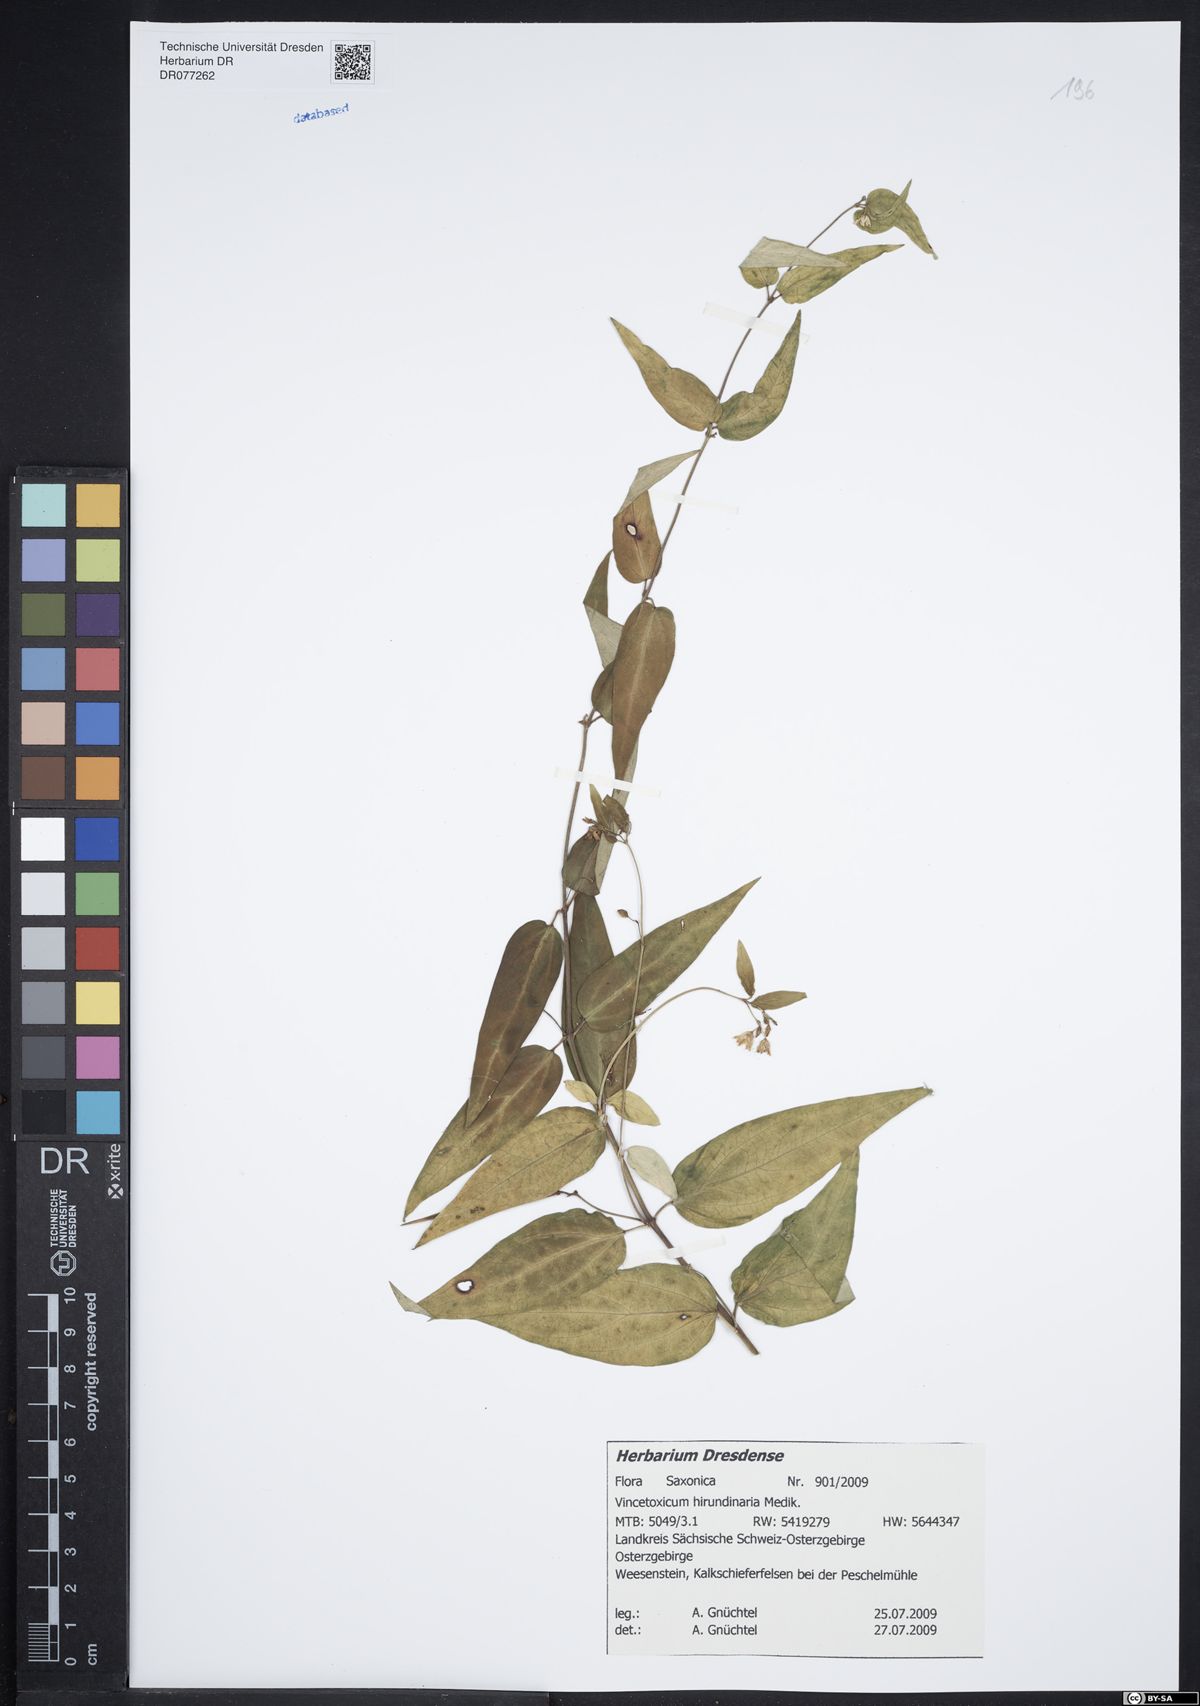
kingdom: Plantae
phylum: Tracheophyta
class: Magnoliopsida
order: Gentianales
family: Apocynaceae
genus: Vincetoxicum
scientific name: Vincetoxicum hirundinaria
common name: White swallowwort
